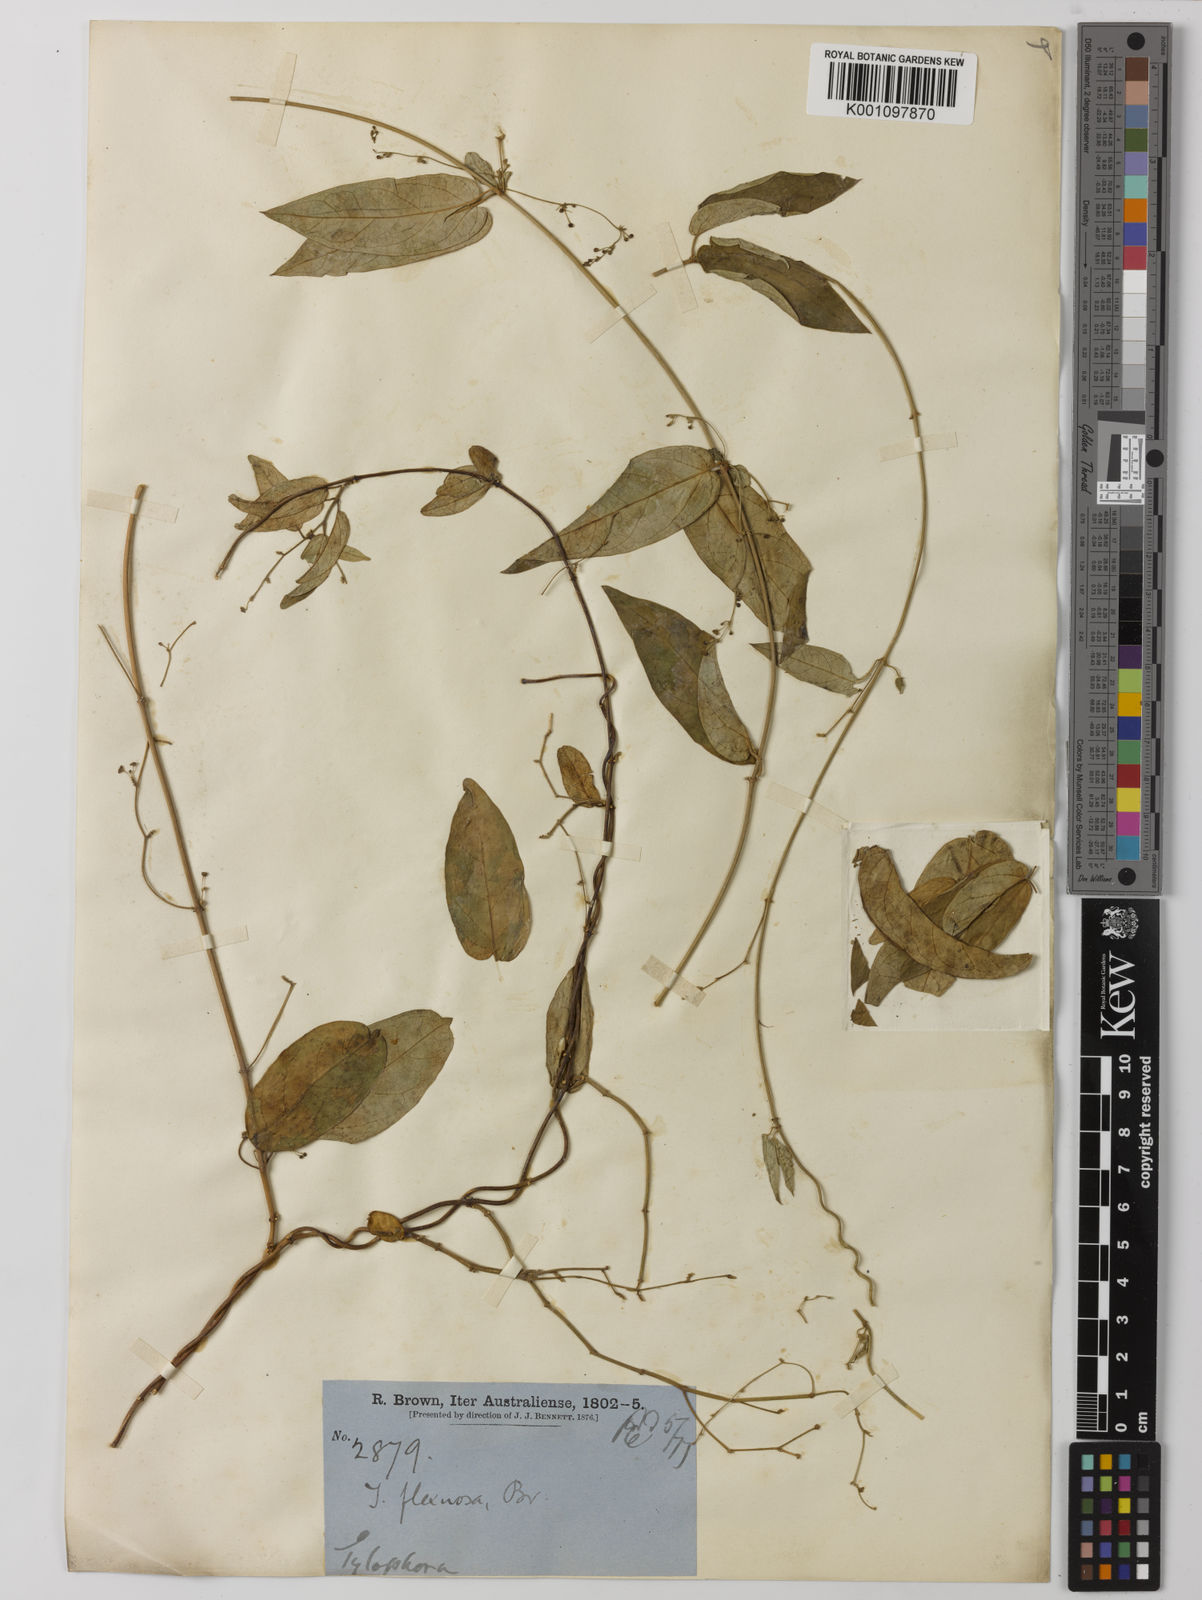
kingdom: Plantae
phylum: Tracheophyta
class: Magnoliopsida
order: Gentianales
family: Apocynaceae
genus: Vincetoxicum
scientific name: Vincetoxicum flexuosum
